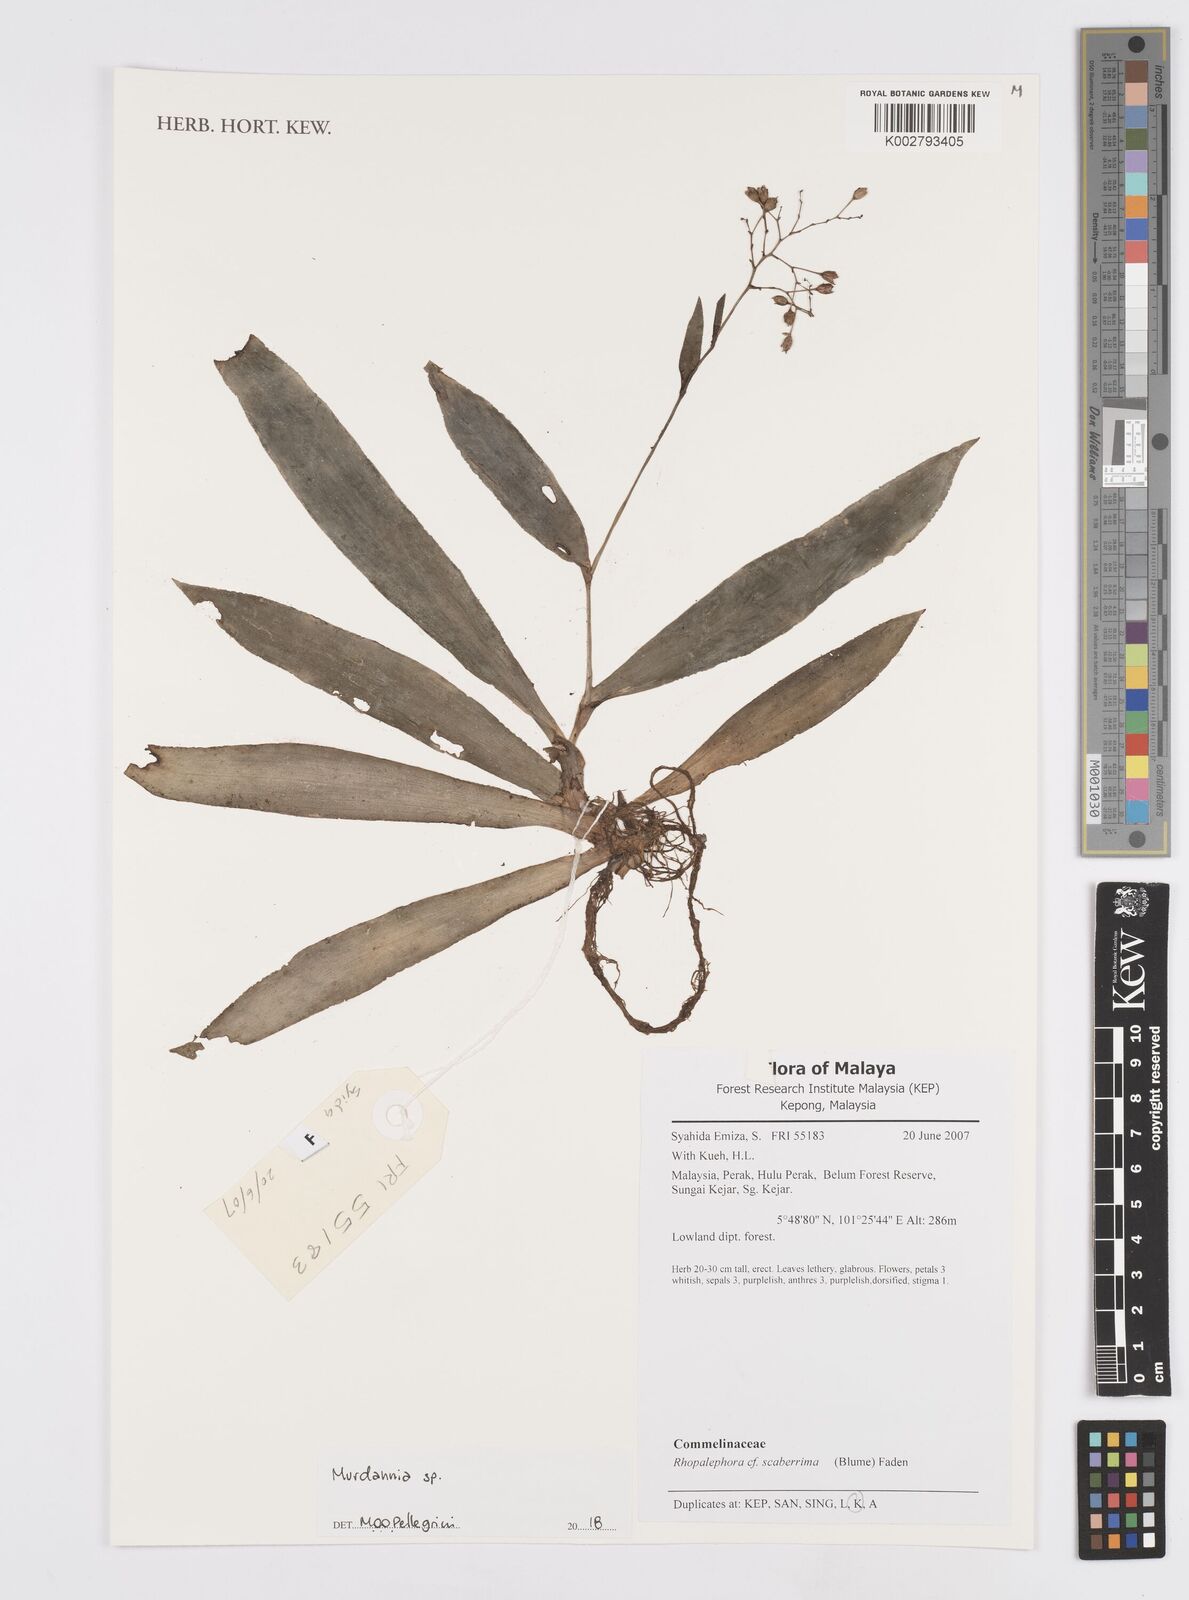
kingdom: Plantae
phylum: Tracheophyta
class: Liliopsida
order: Commelinales
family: Commelinaceae
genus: Murdannia
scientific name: Murdannia
